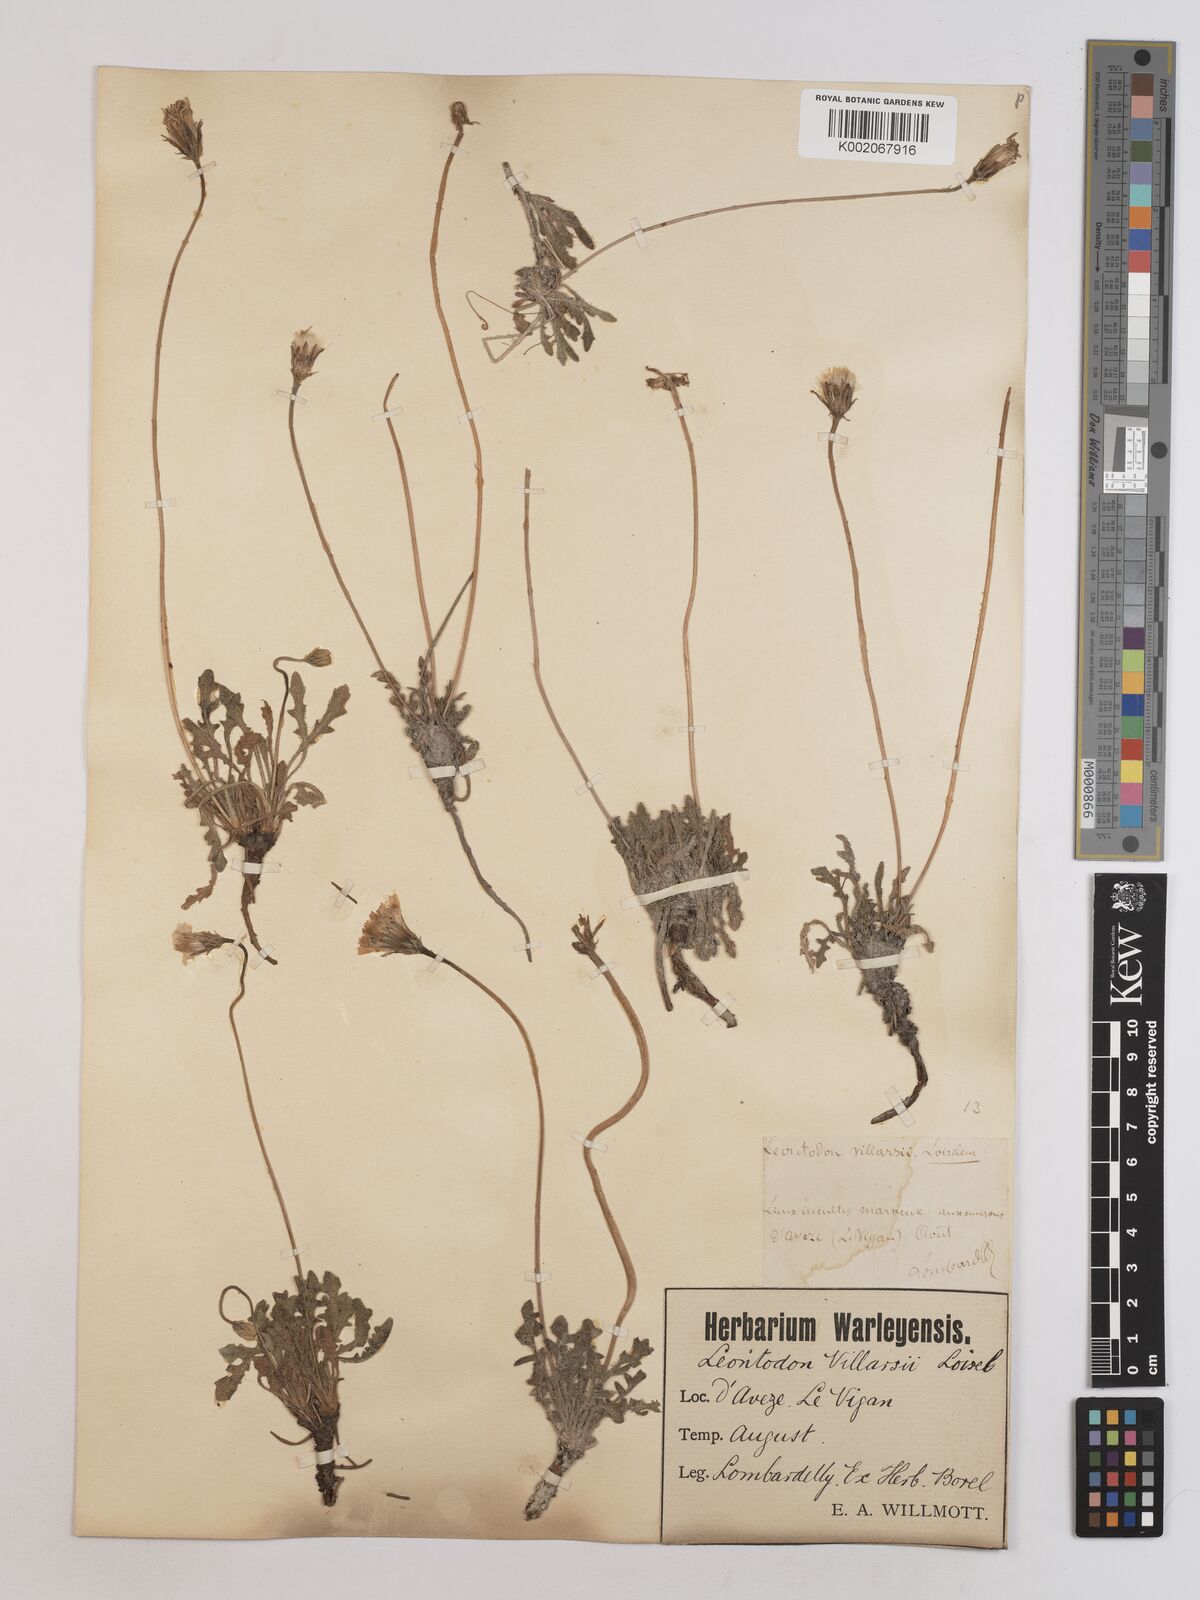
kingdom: Plantae
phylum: Tracheophyta
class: Magnoliopsida
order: Asterales
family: Asteraceae
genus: Leontodon
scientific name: Leontodon hirtus
